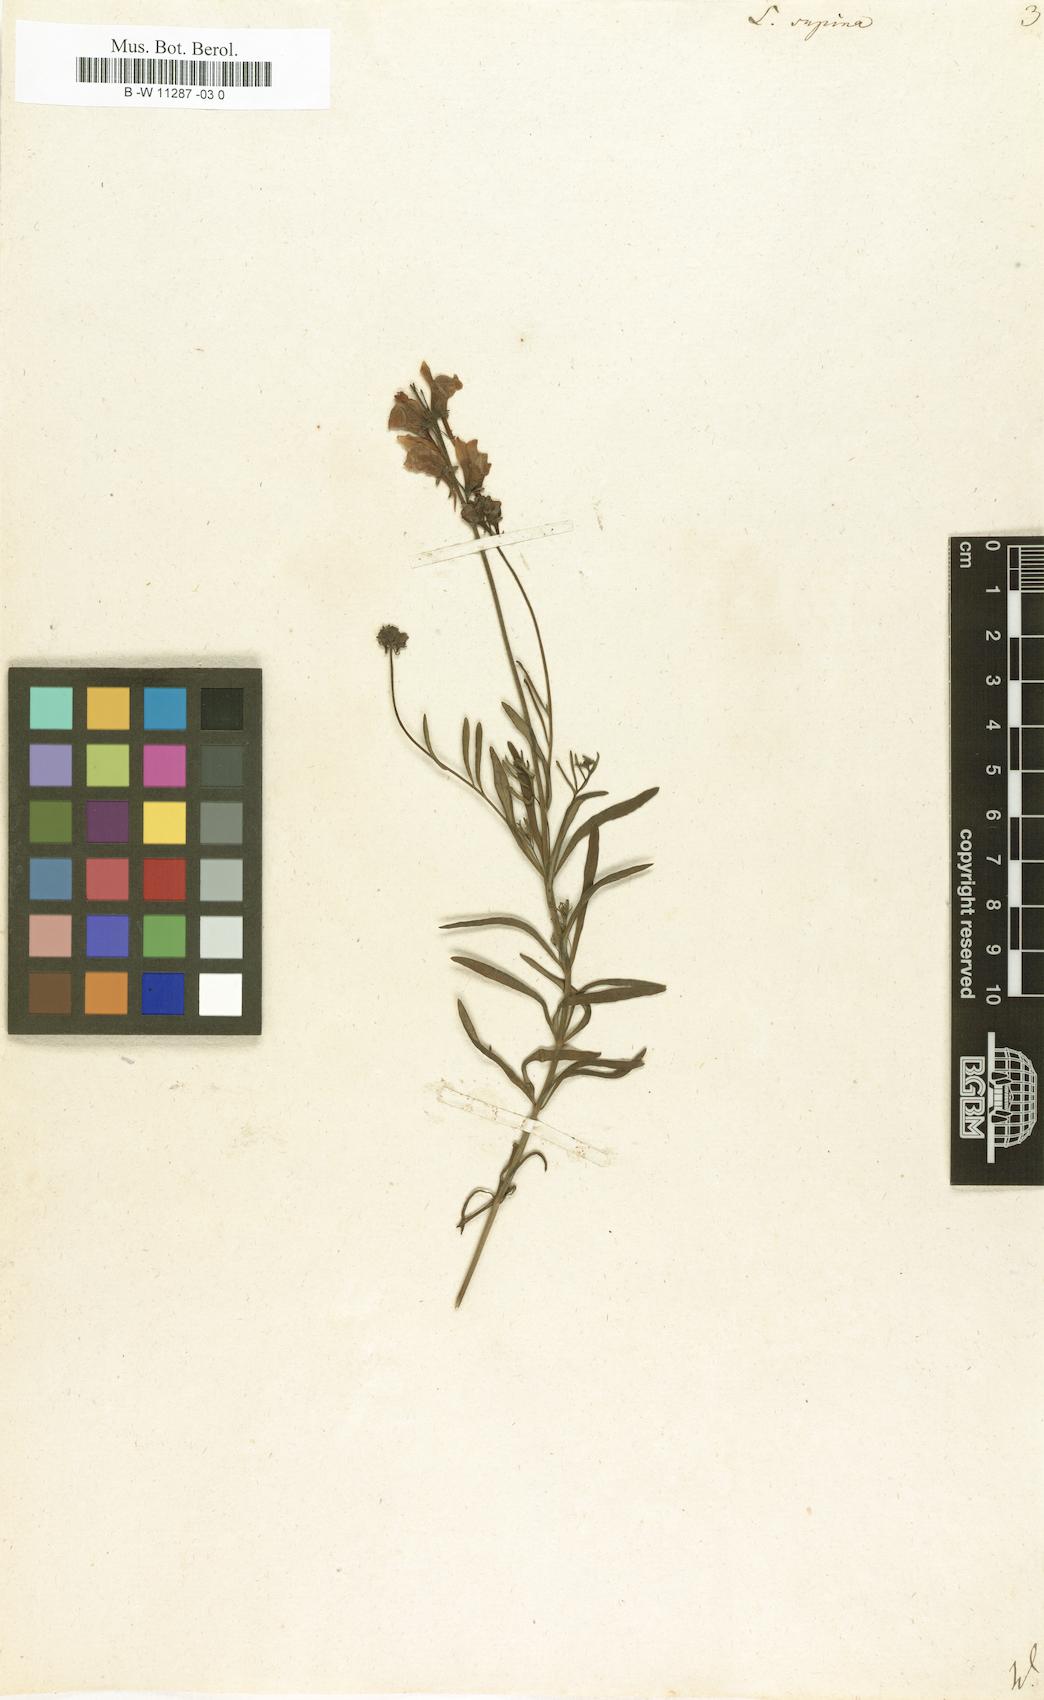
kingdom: Plantae
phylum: Tracheophyta
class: Magnoliopsida
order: Lamiales
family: Plantaginaceae
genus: Linaria
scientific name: Linaria supina
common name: Prostrate toadflax
